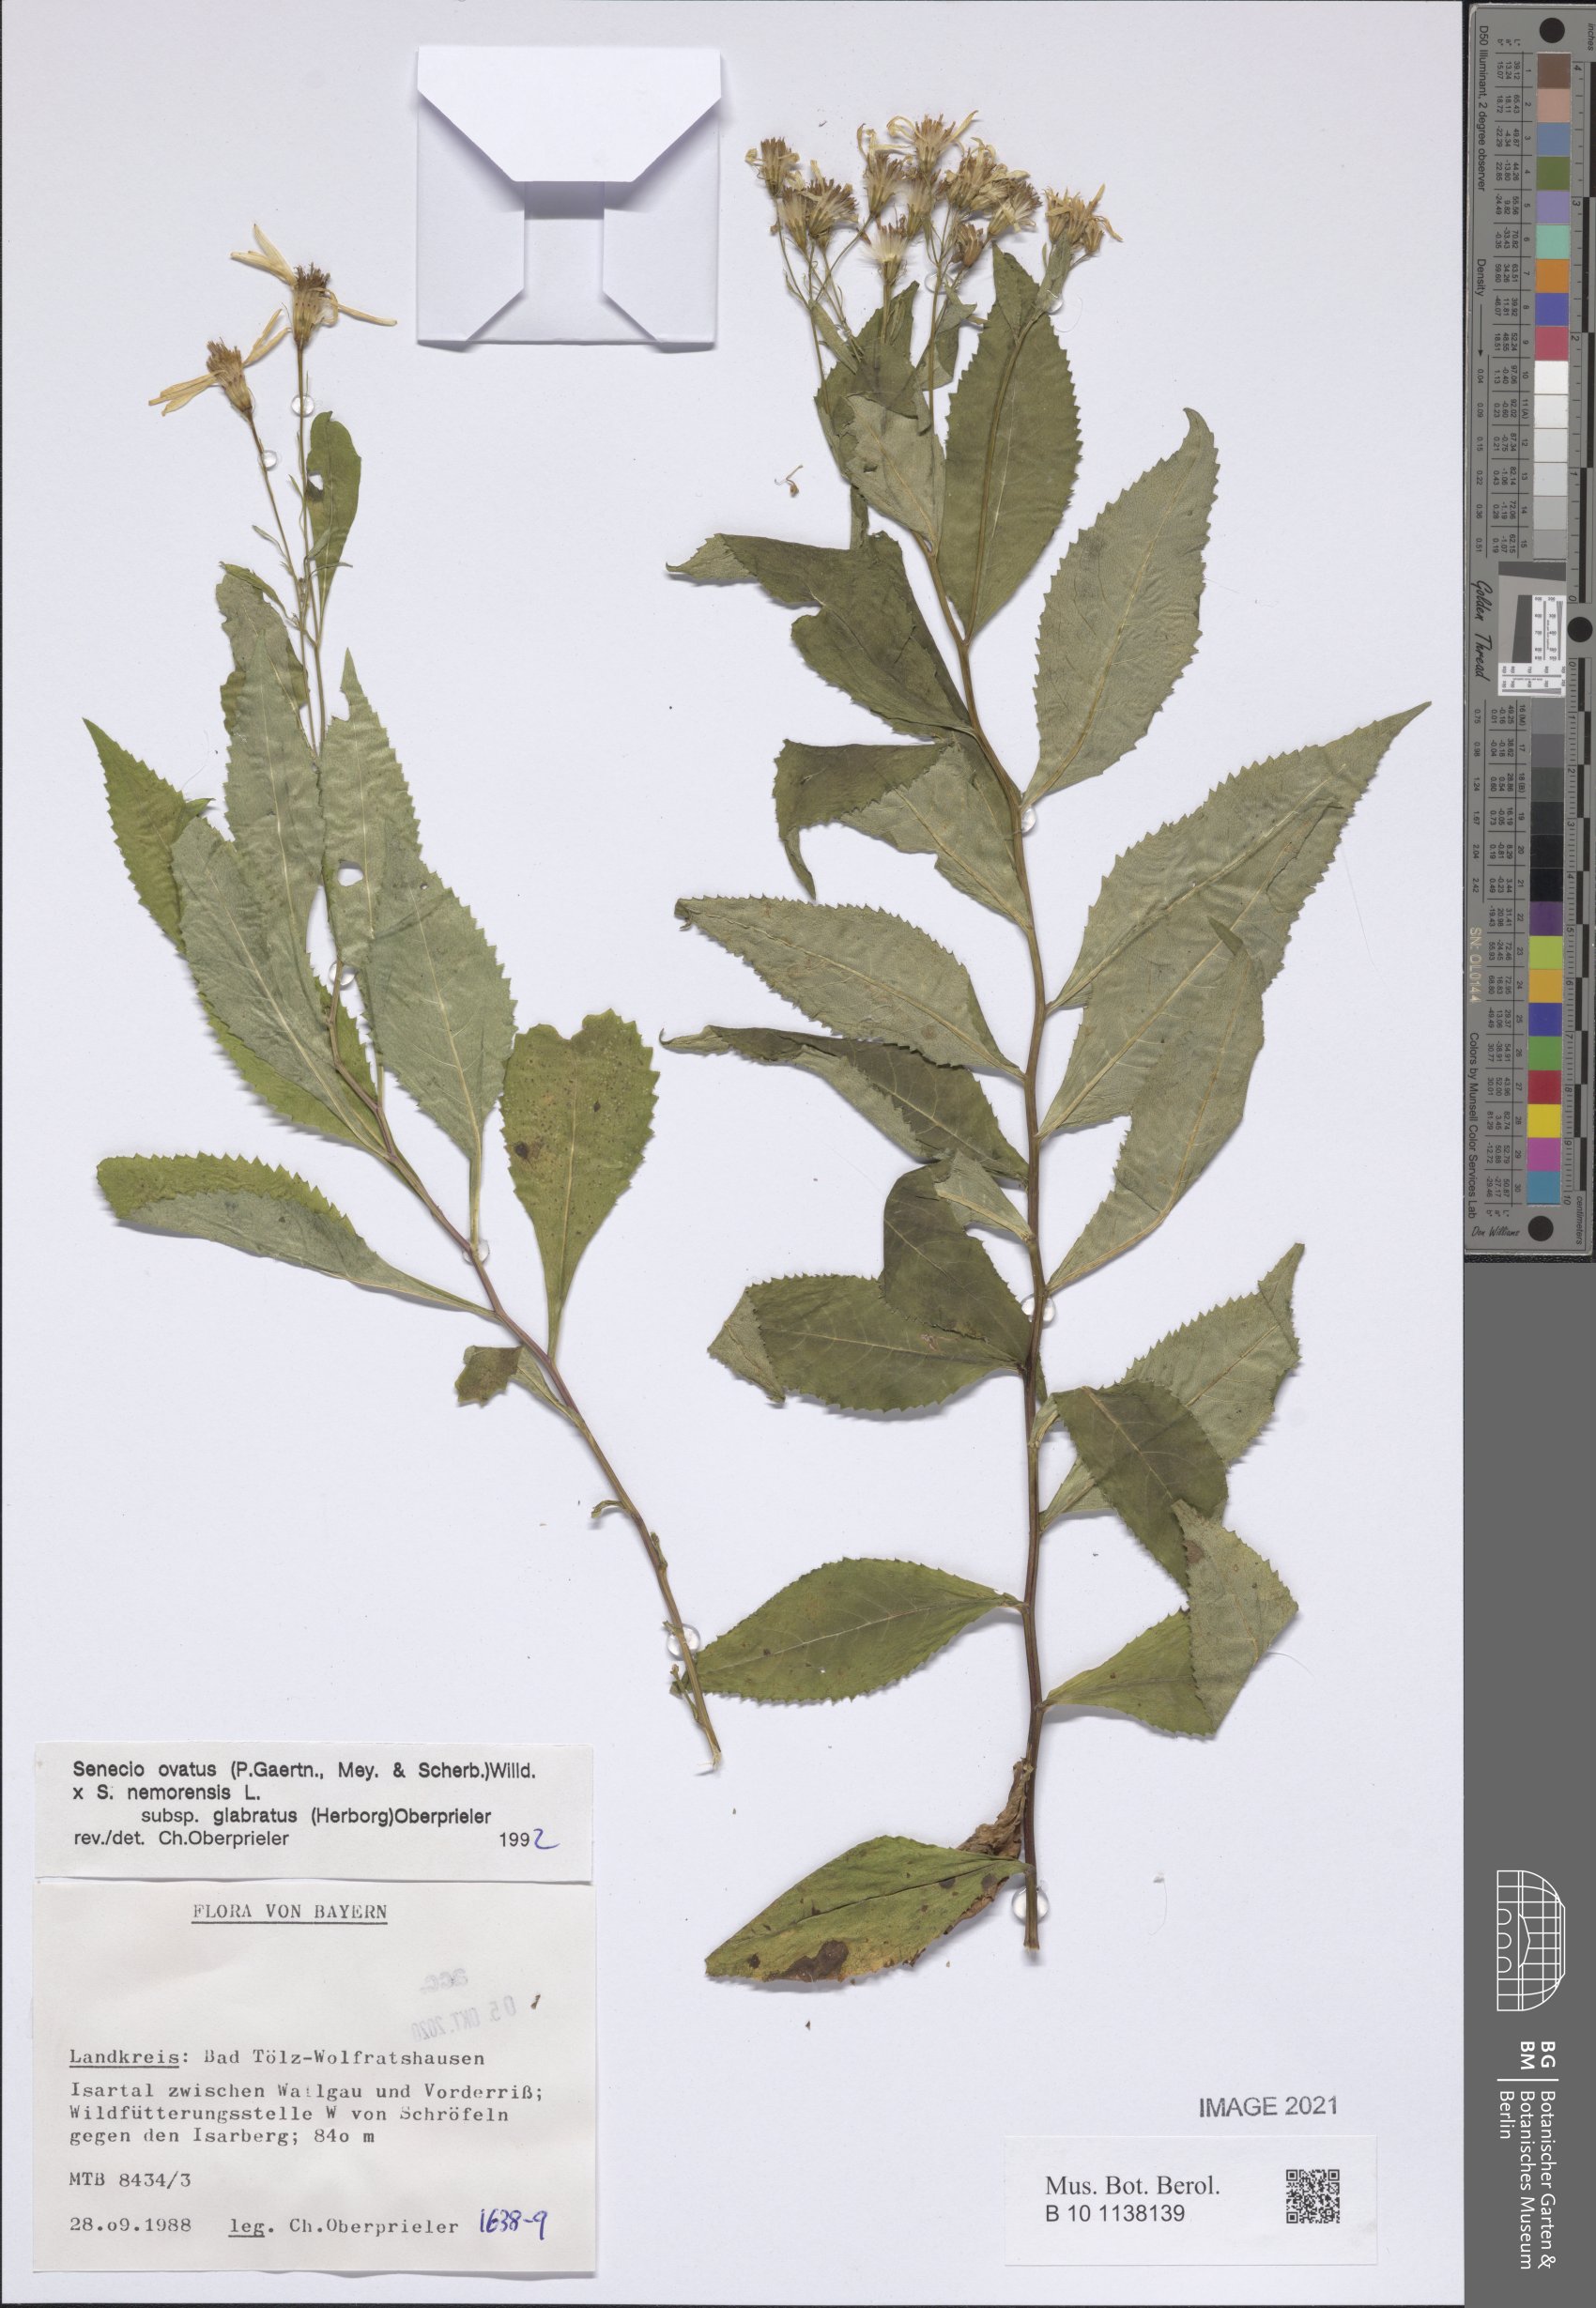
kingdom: Plantae
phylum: Tracheophyta
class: Magnoliopsida
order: Asterales
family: Asteraceae
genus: Senecio
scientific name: Senecio ovatus
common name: Wood ragwort
